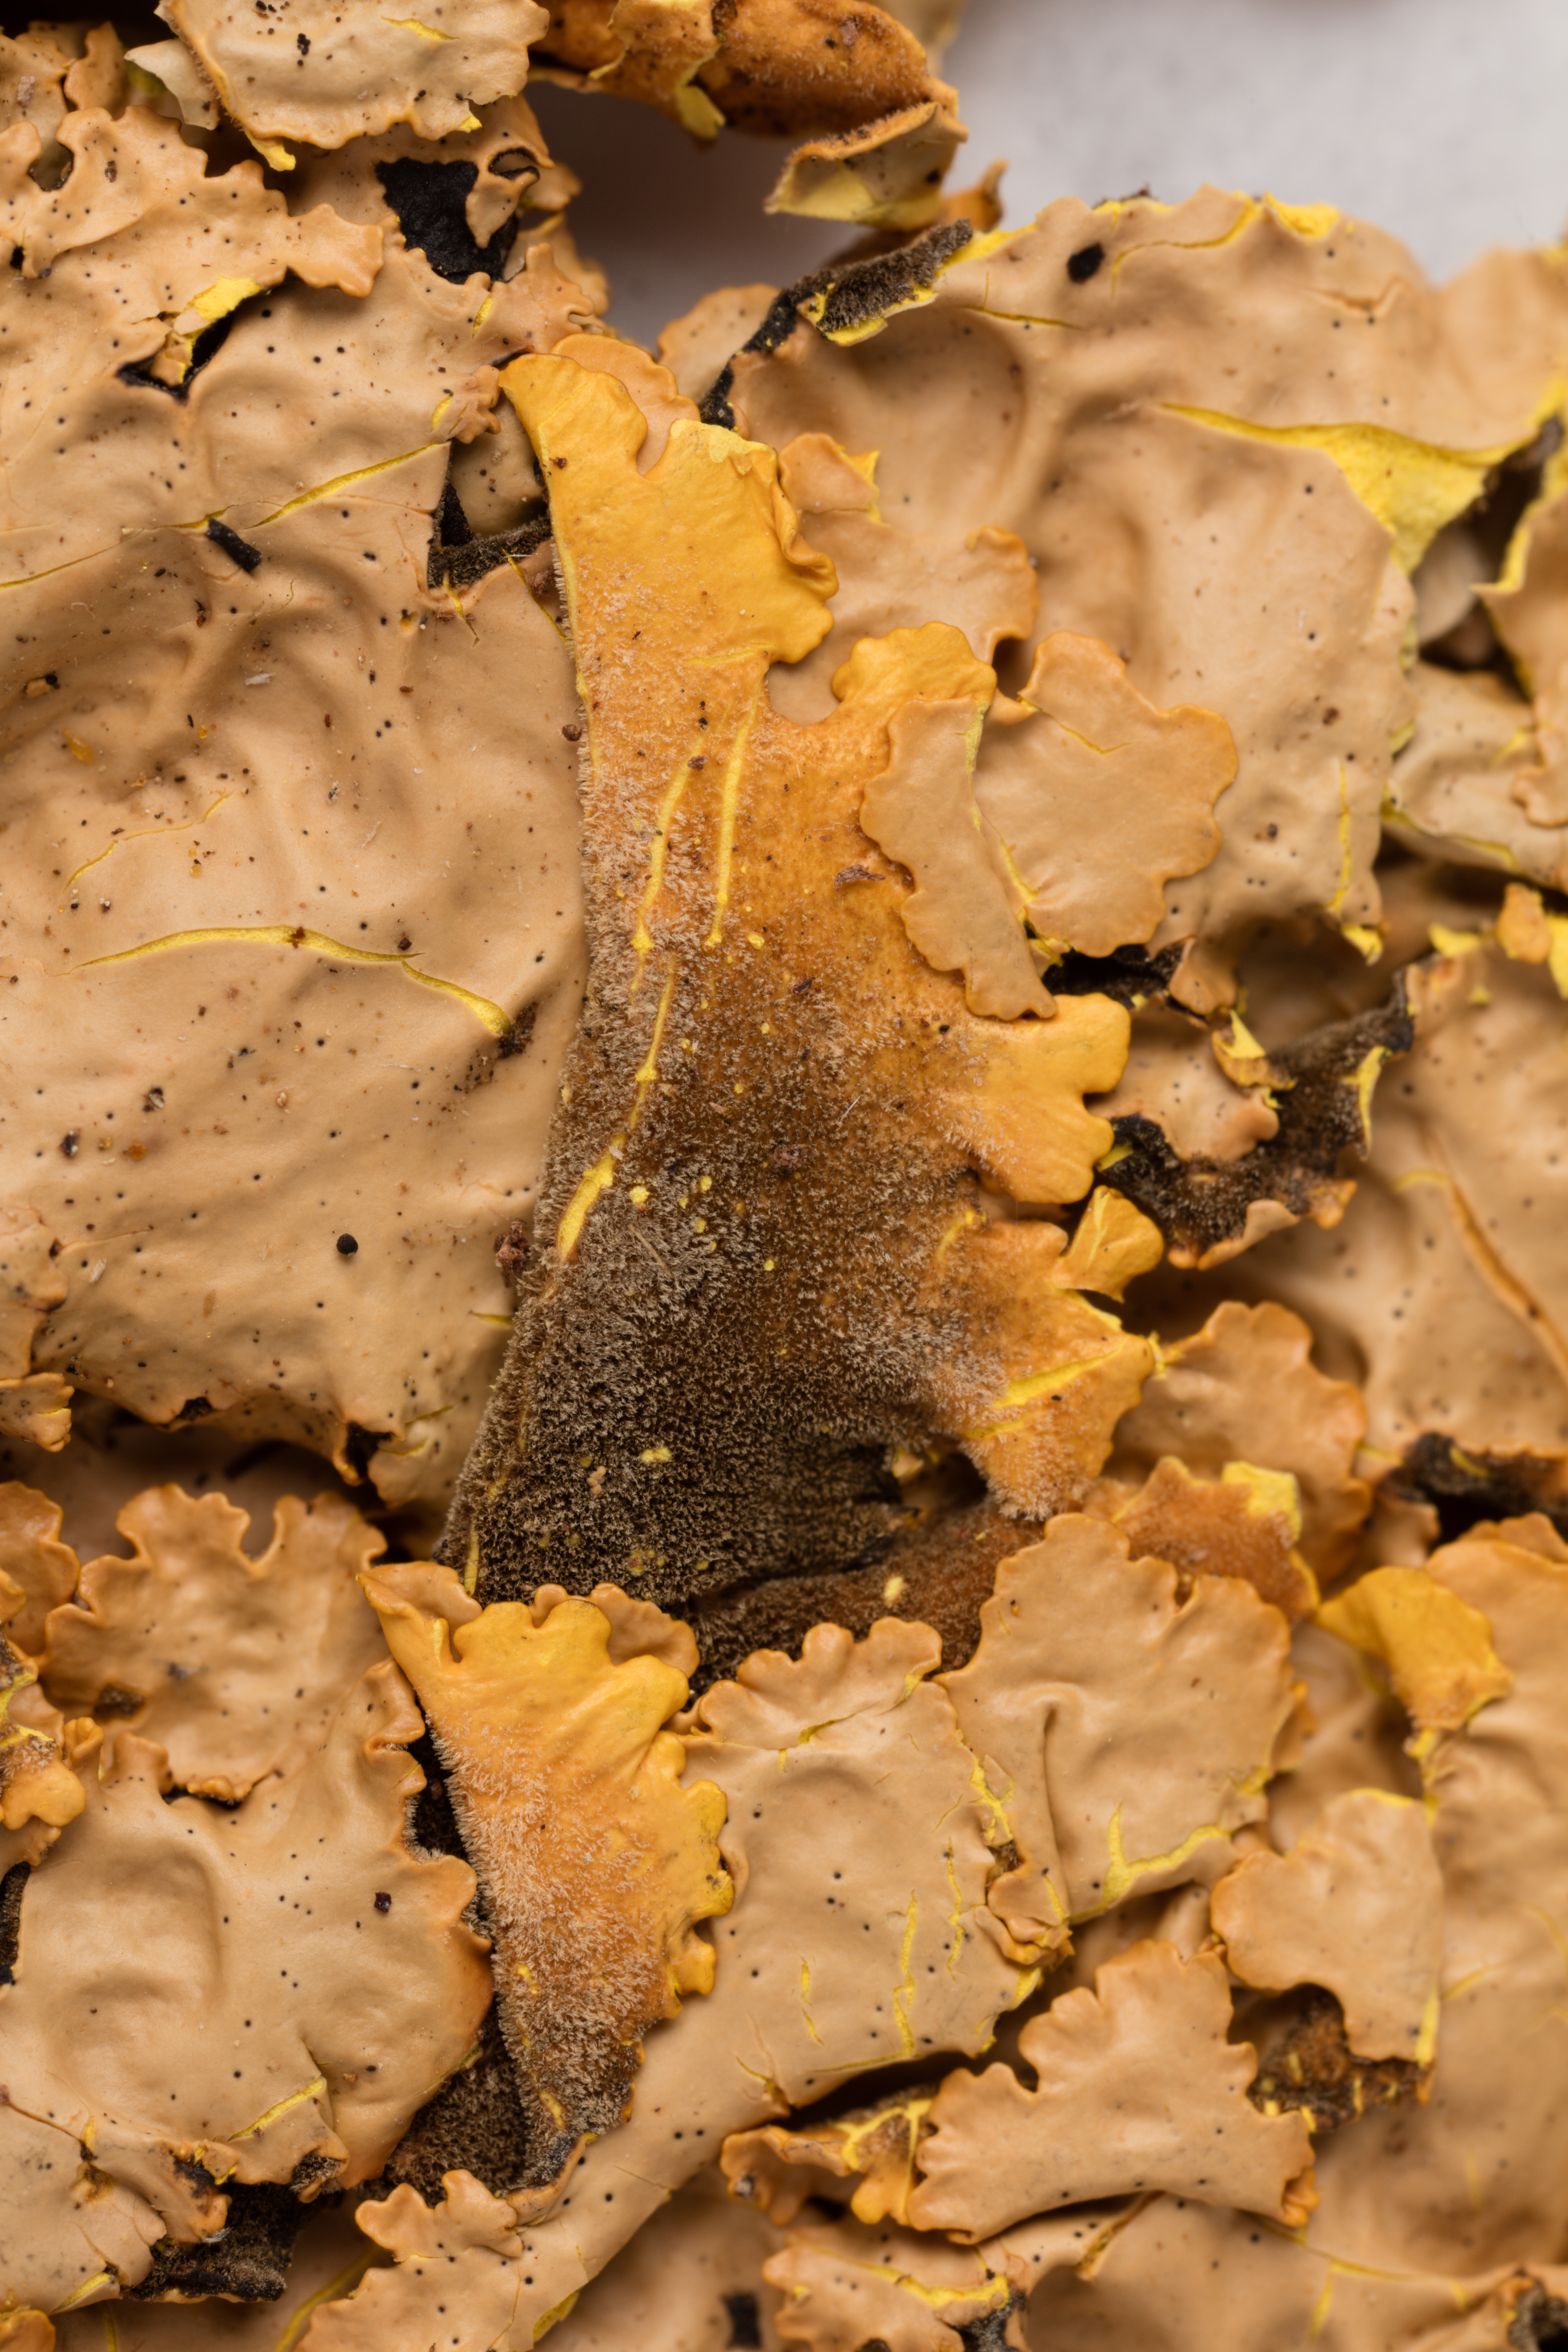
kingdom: Fungi
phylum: Ascomycota
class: Lecanoromycetes
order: Peltigerales
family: Lobariaceae
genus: Podostictina
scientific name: Podostictina berberina
